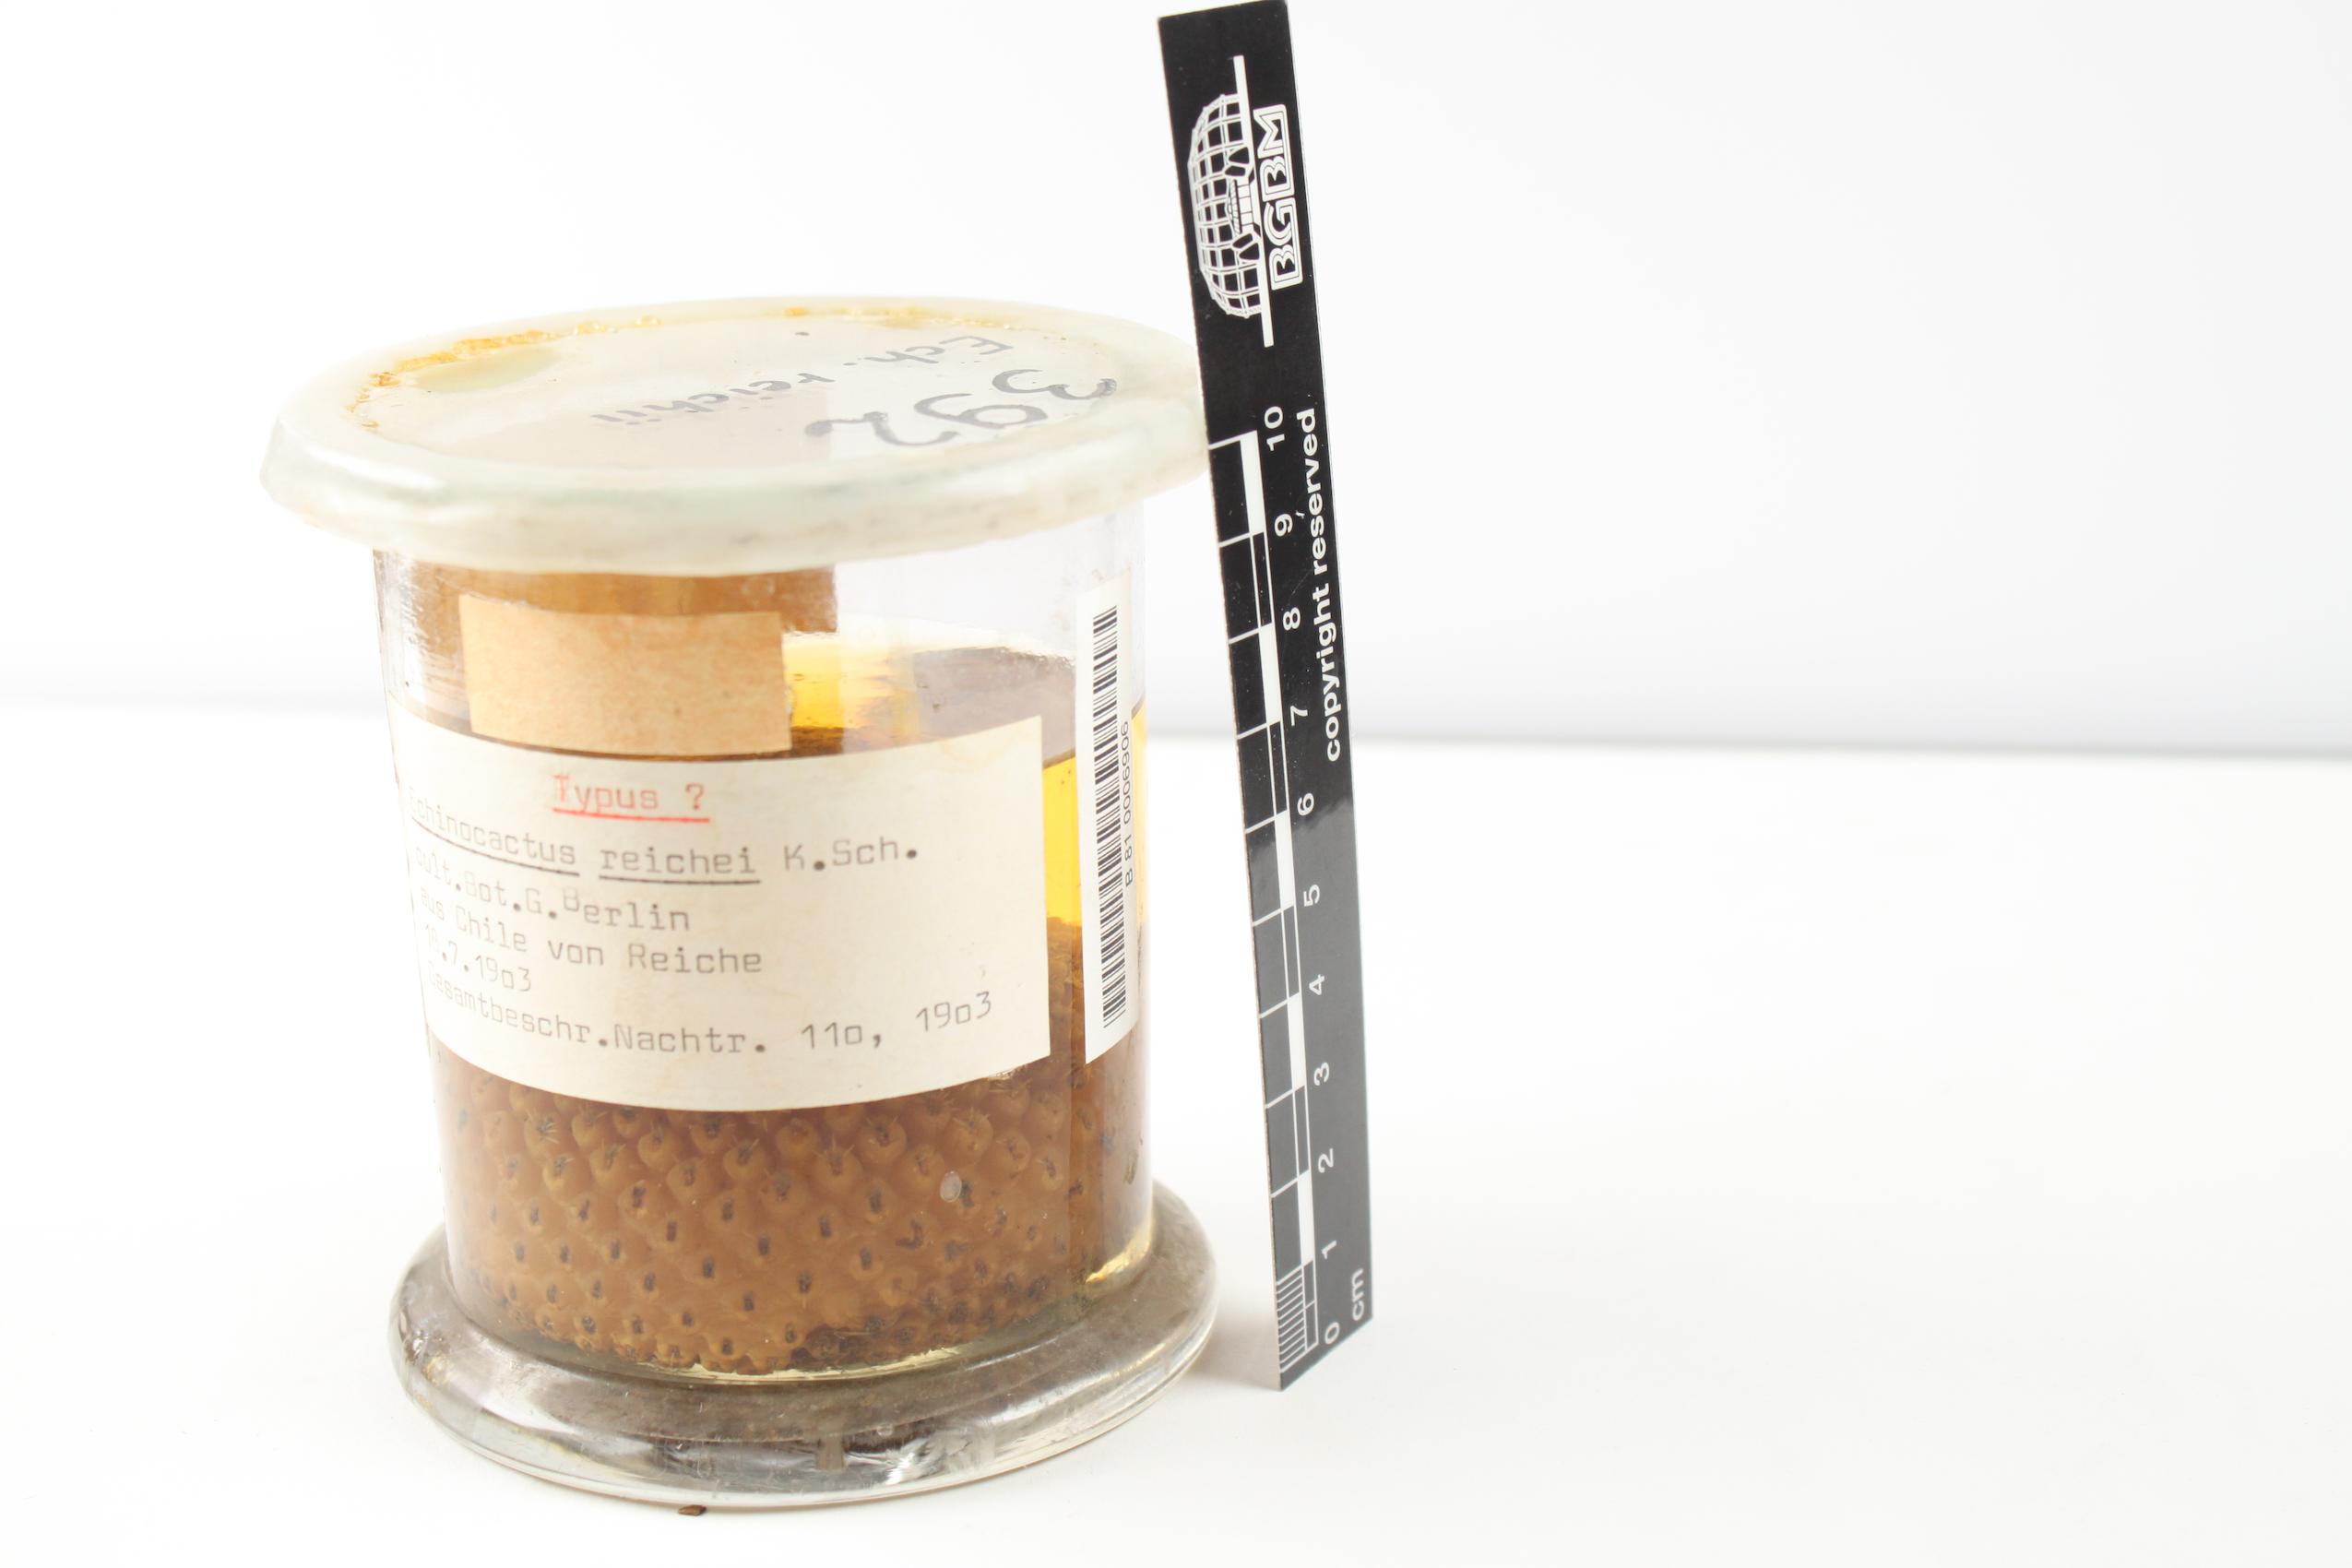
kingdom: Plantae
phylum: Tracheophyta
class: Magnoliopsida
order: Caryophyllales
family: Cactaceae
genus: Eriosyce
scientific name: Eriosyce odieri
